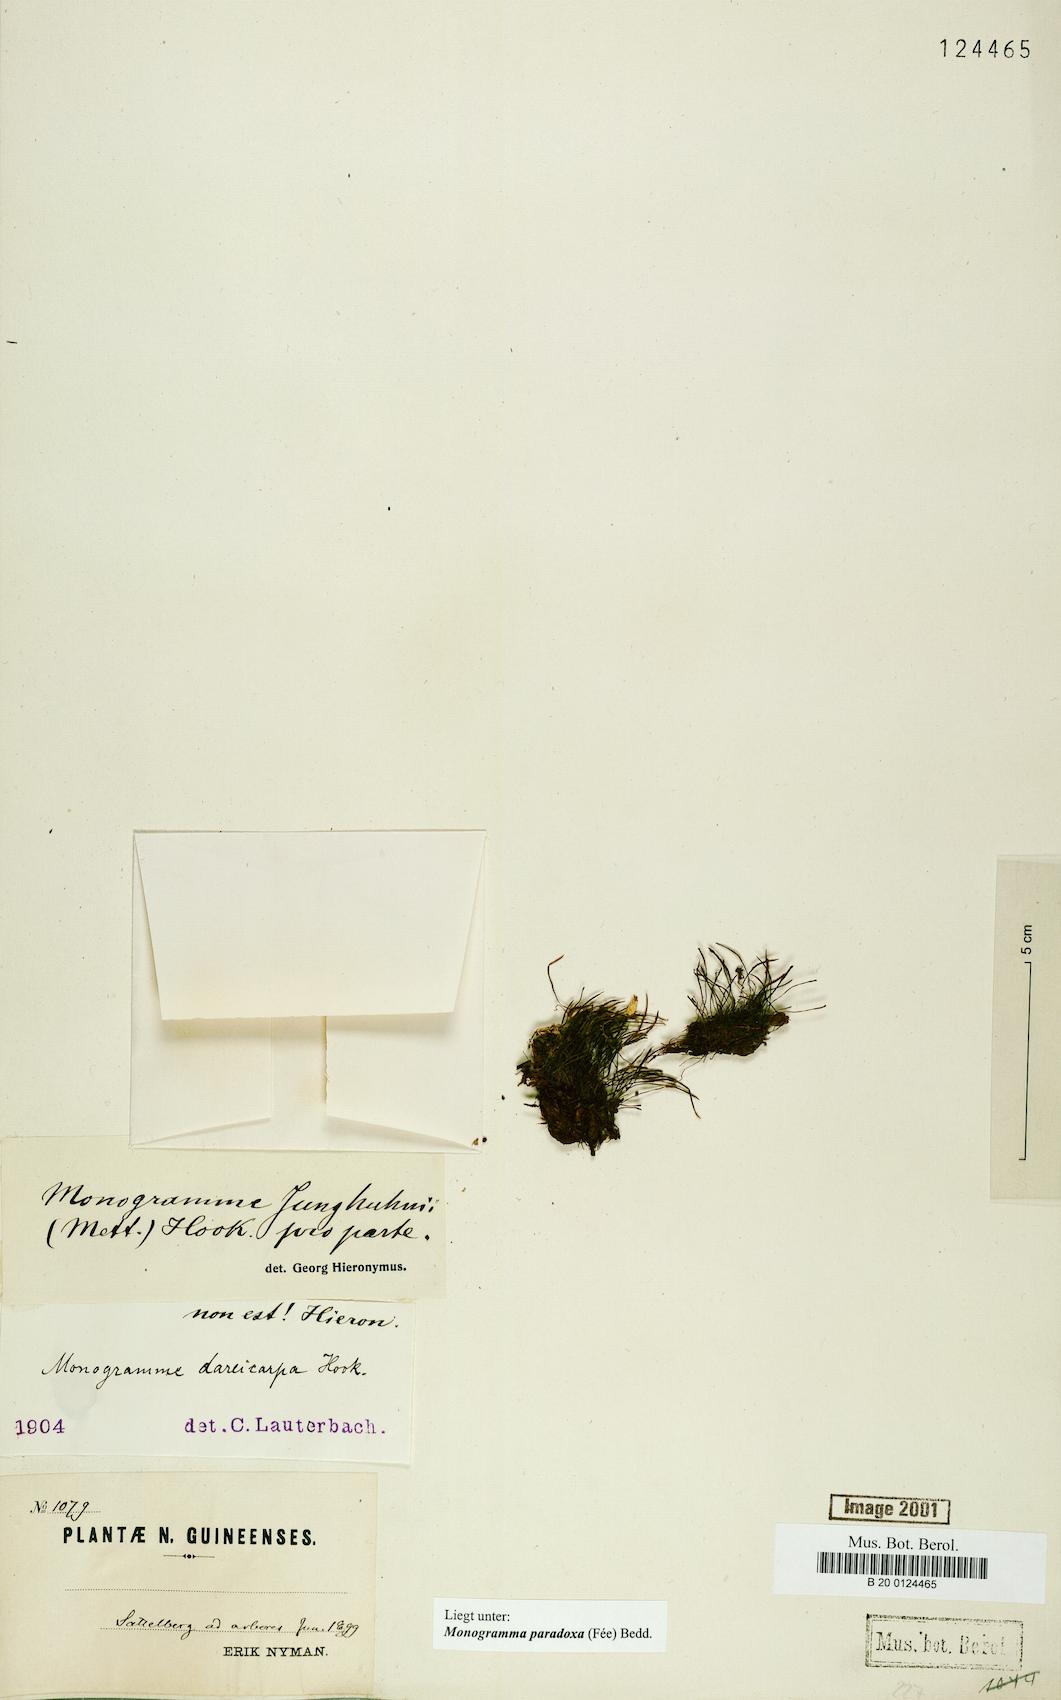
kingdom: Plantae
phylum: Tracheophyta
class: Polypodiopsida
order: Polypodiales
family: Pteridaceae
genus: Vaginularia
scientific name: Vaginularia paradoxa
